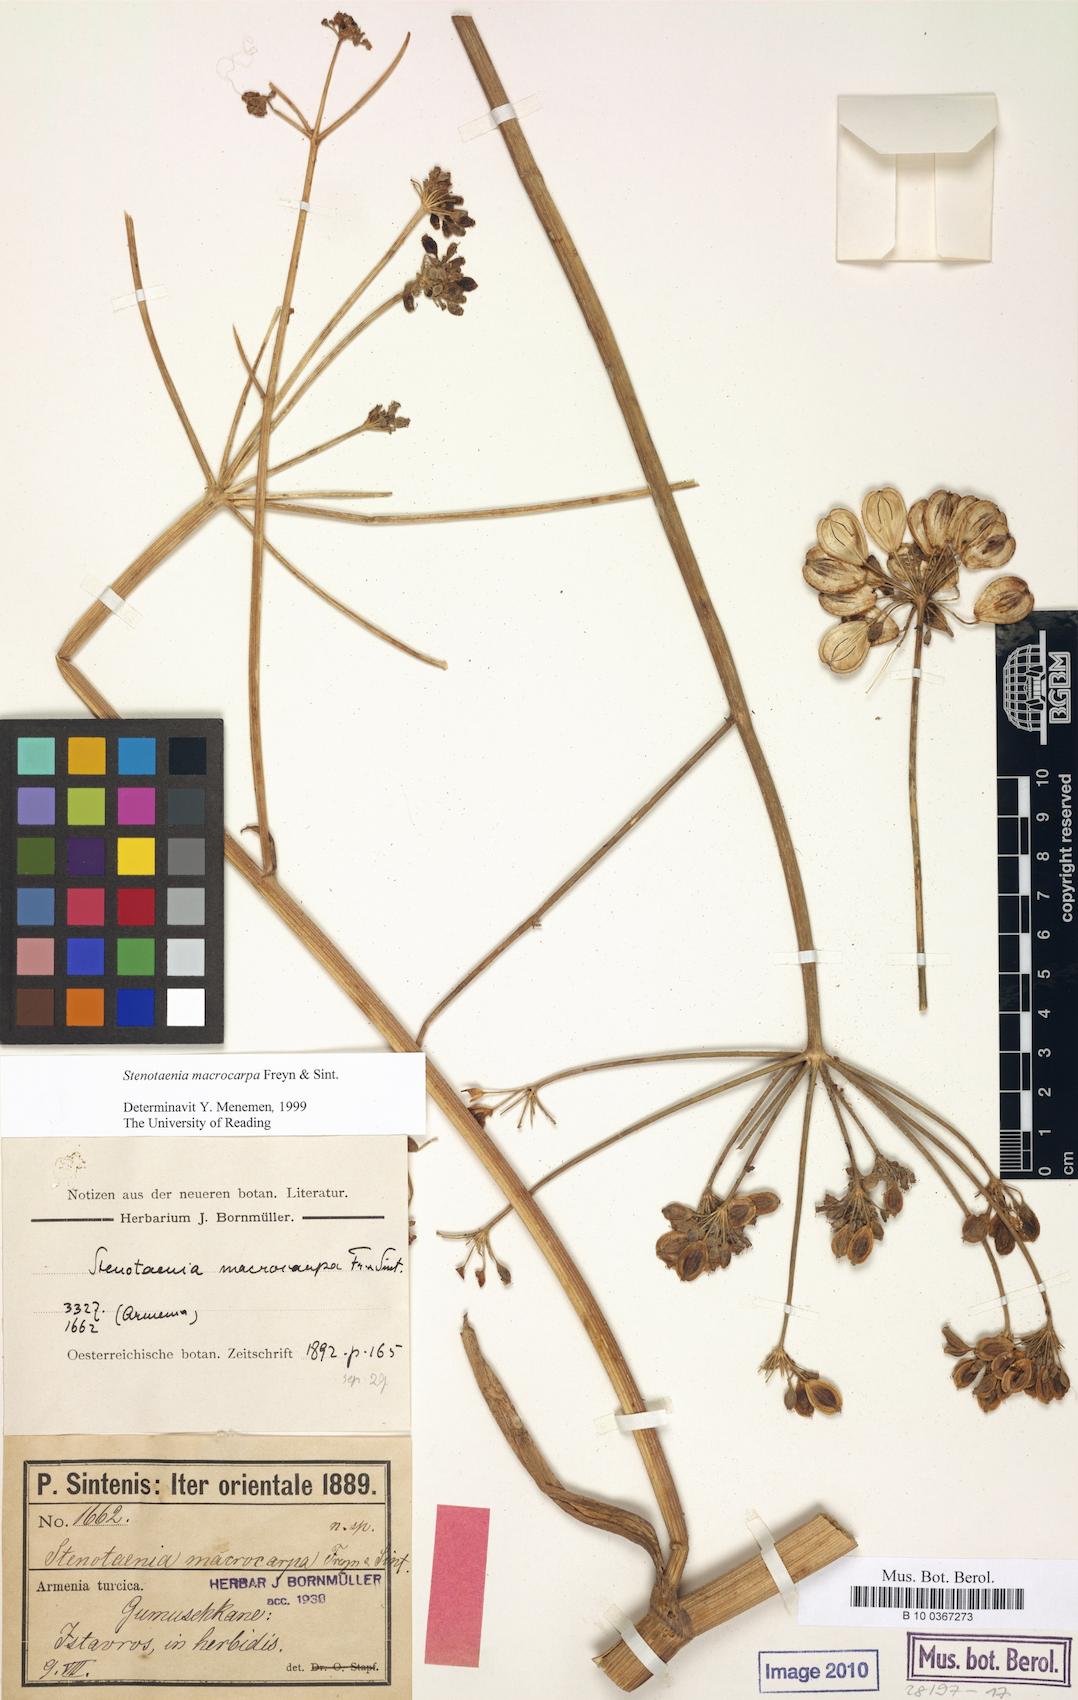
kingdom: Plantae
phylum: Tracheophyta
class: Magnoliopsida
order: Apiales
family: Apiaceae
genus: Stenotaenia
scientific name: Stenotaenia macrocarpa
